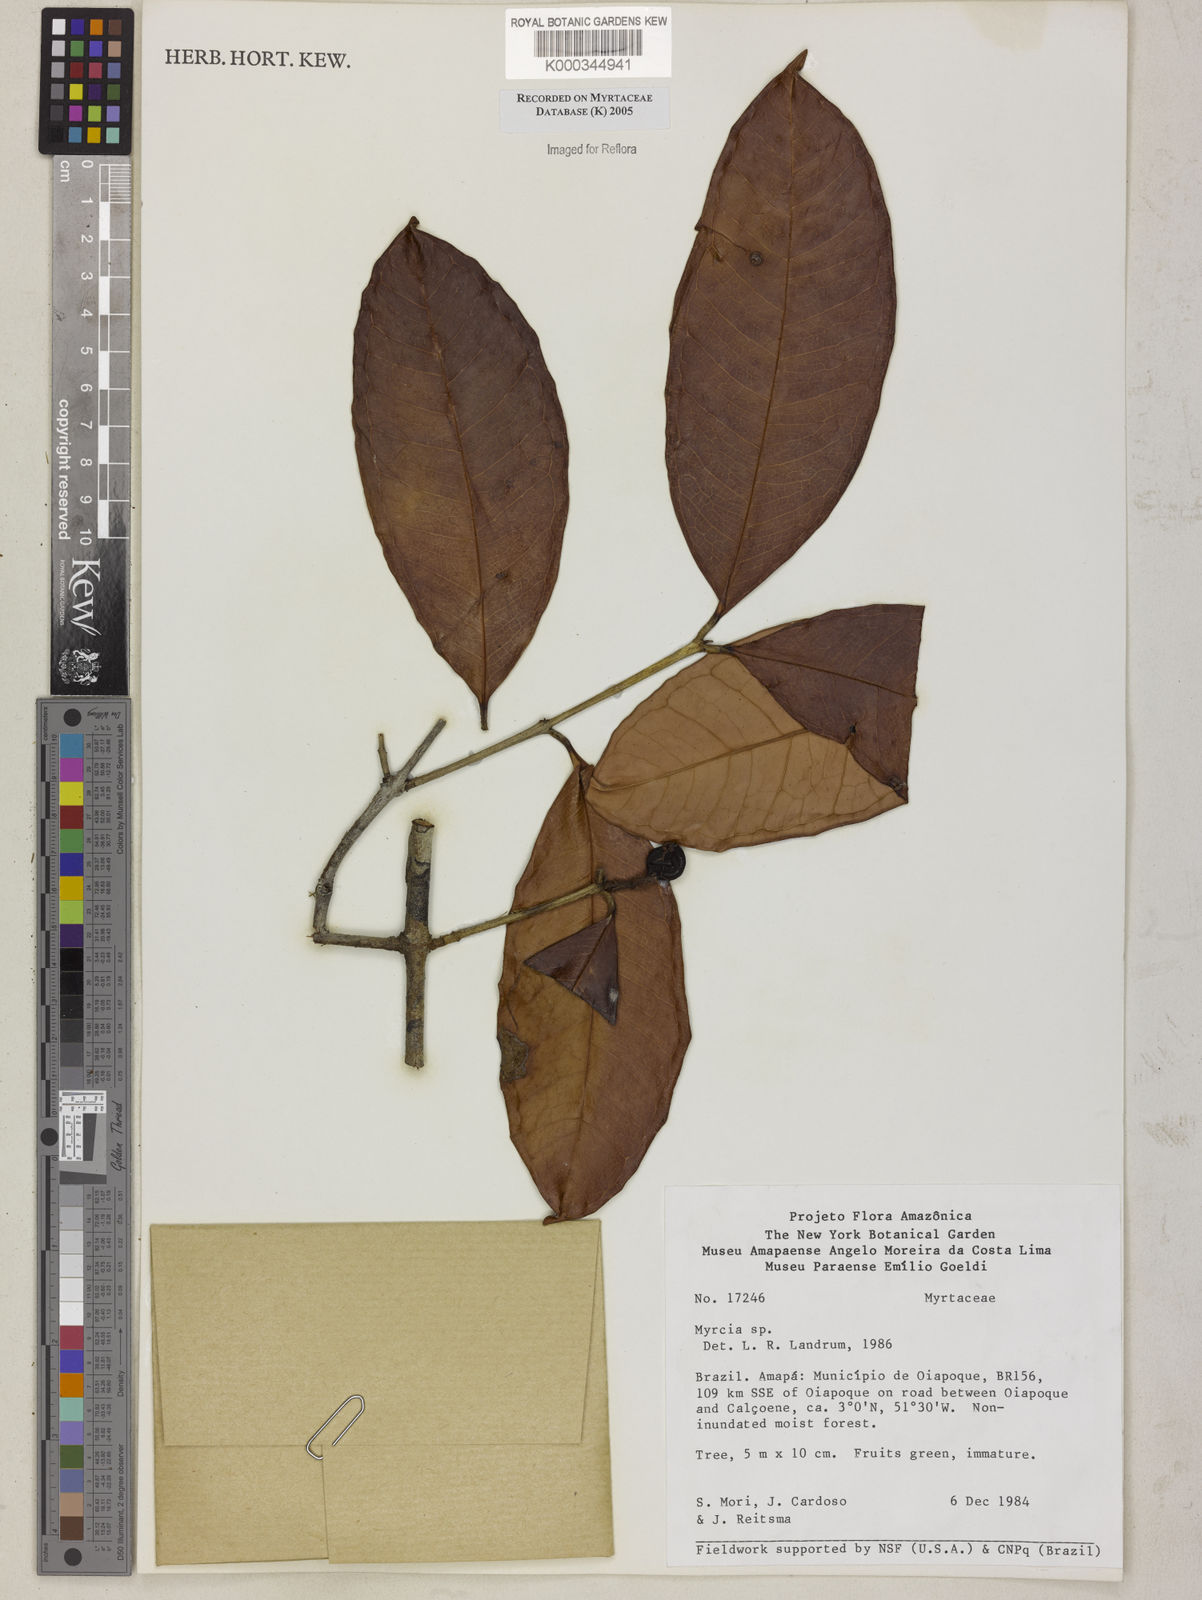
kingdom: Plantae
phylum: Tracheophyta
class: Magnoliopsida
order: Myrtales
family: Myrtaceae
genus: Myrcia
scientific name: Myrcia
